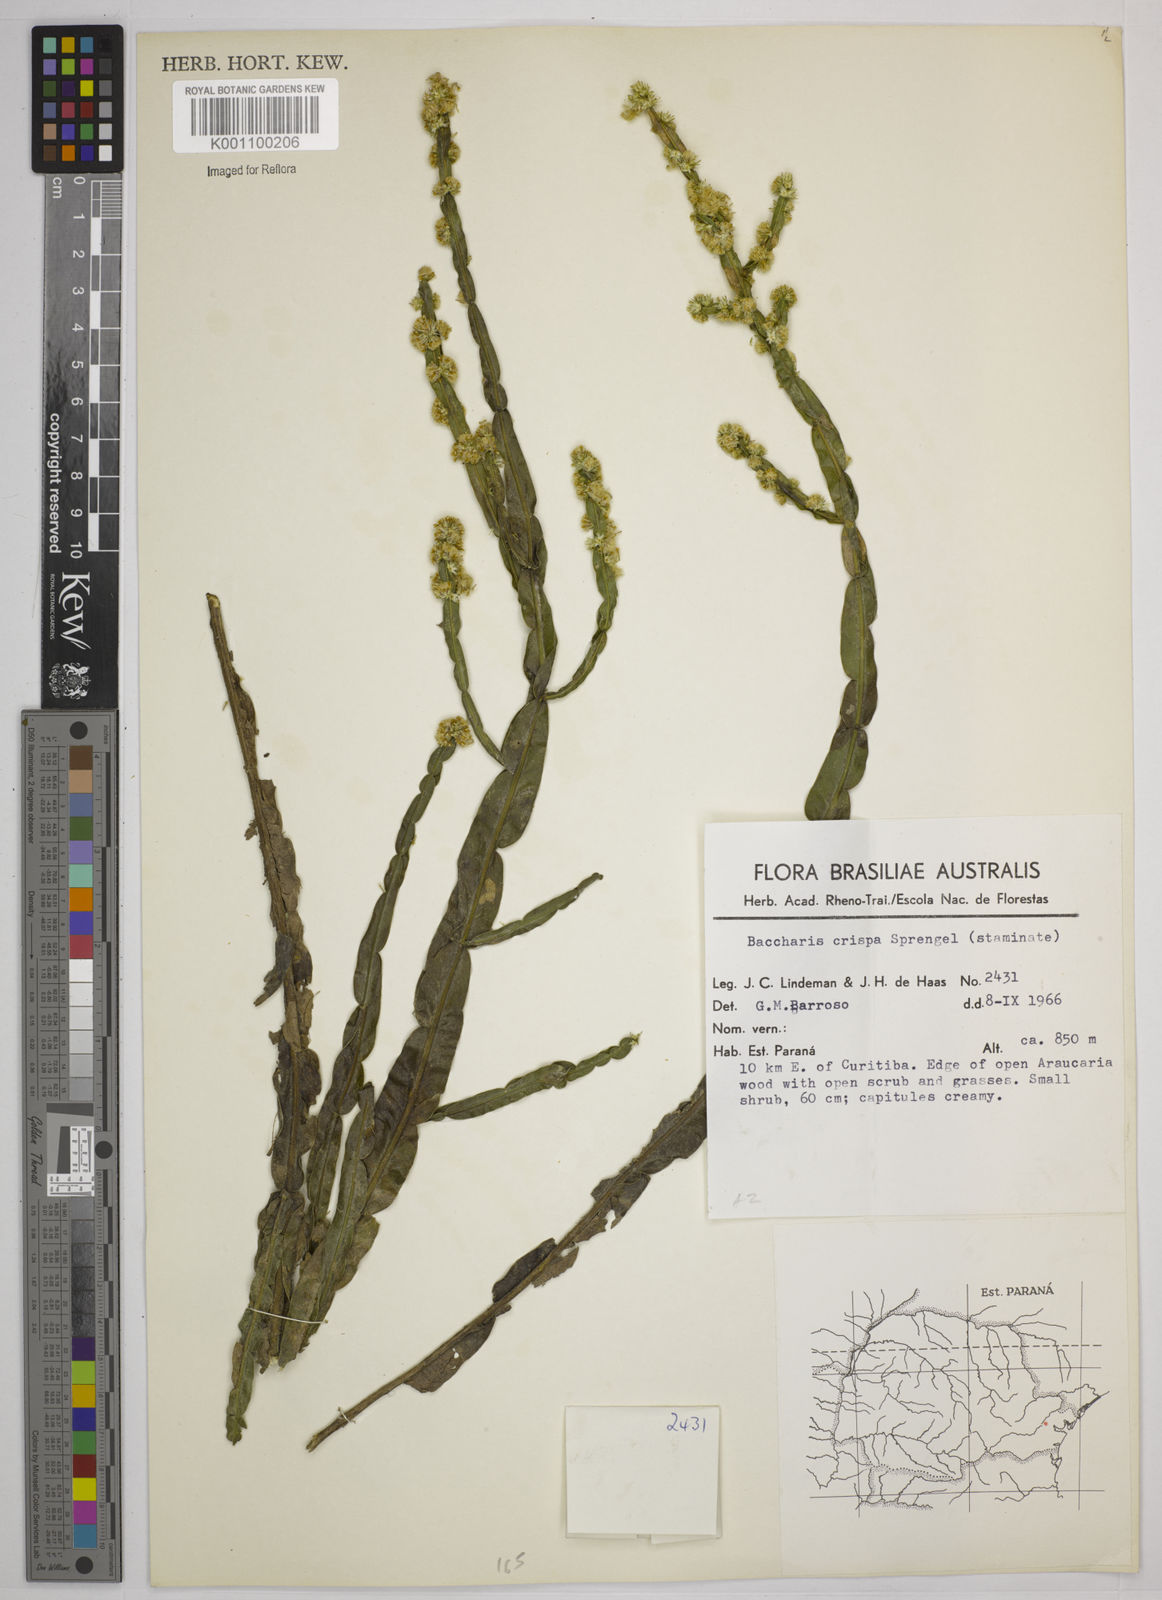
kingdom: Plantae
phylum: Tracheophyta
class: Magnoliopsida
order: Asterales
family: Asteraceae
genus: Baccharis
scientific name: Baccharis crispa
